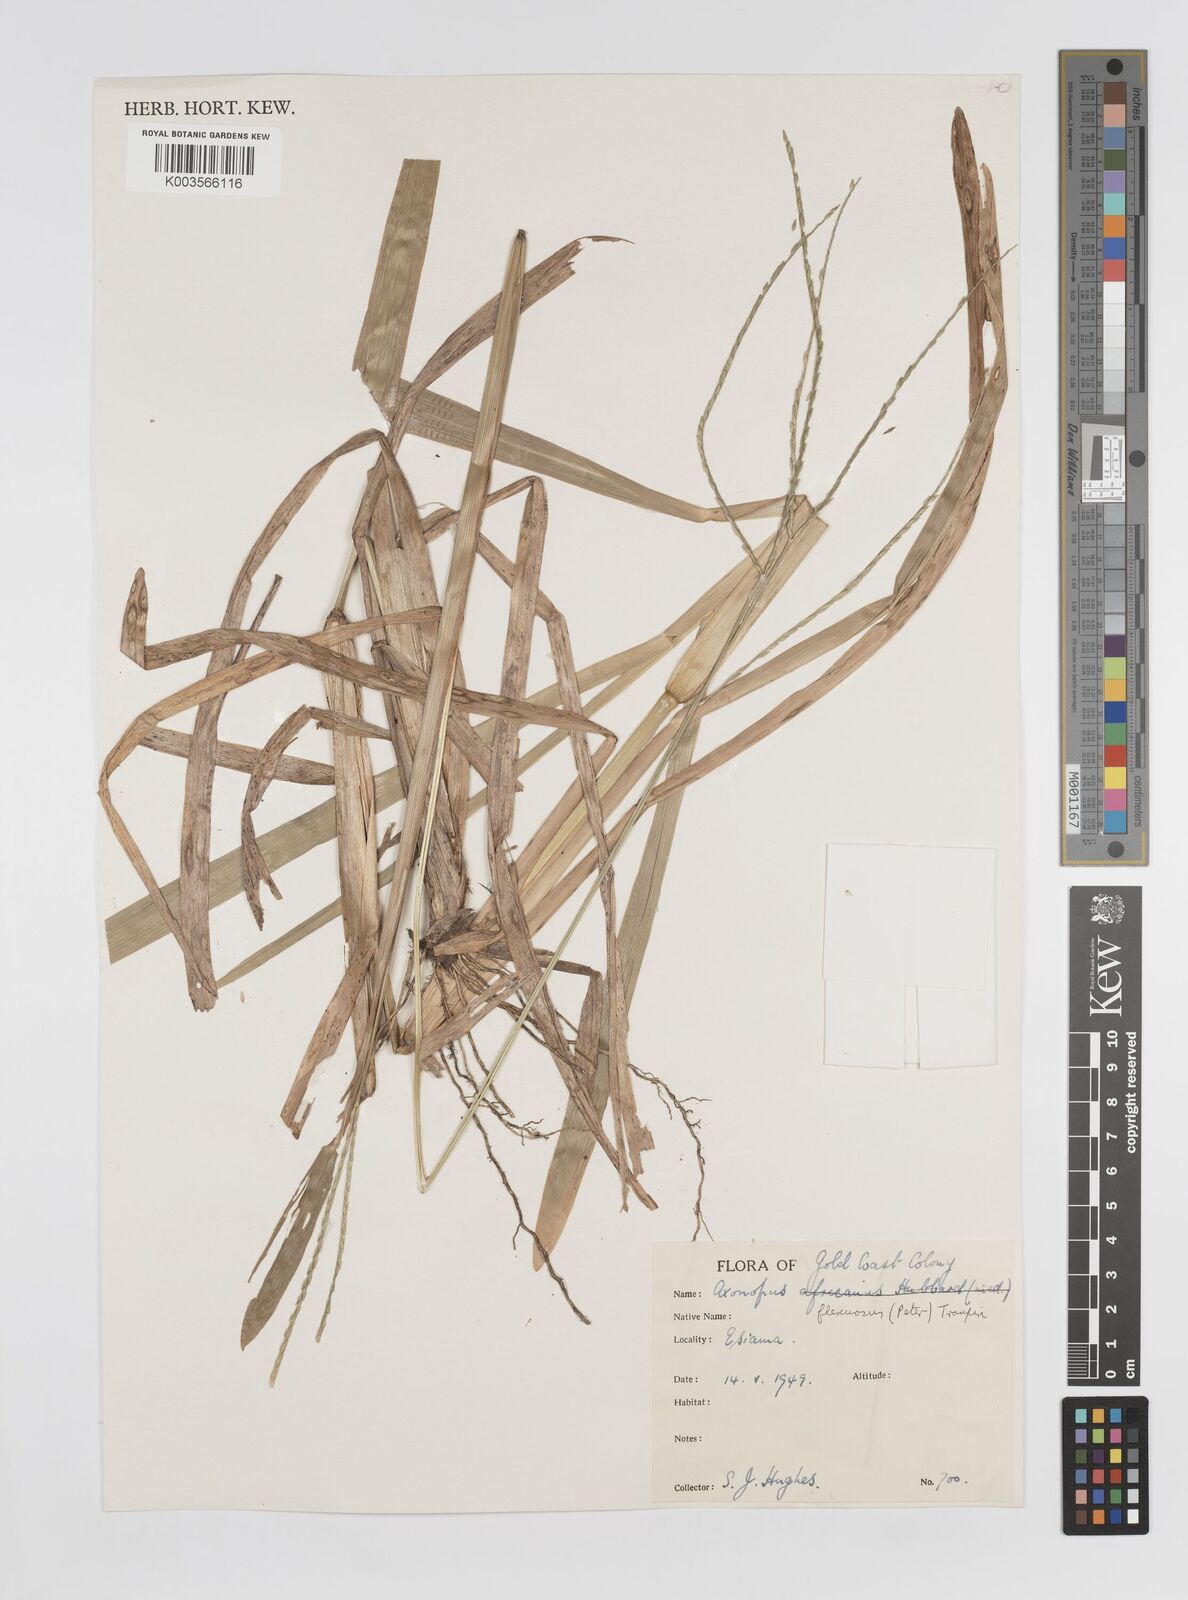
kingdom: Plantae
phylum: Tracheophyta
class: Liliopsida
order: Poales
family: Poaceae
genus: Axonopus
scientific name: Axonopus flexuosus
